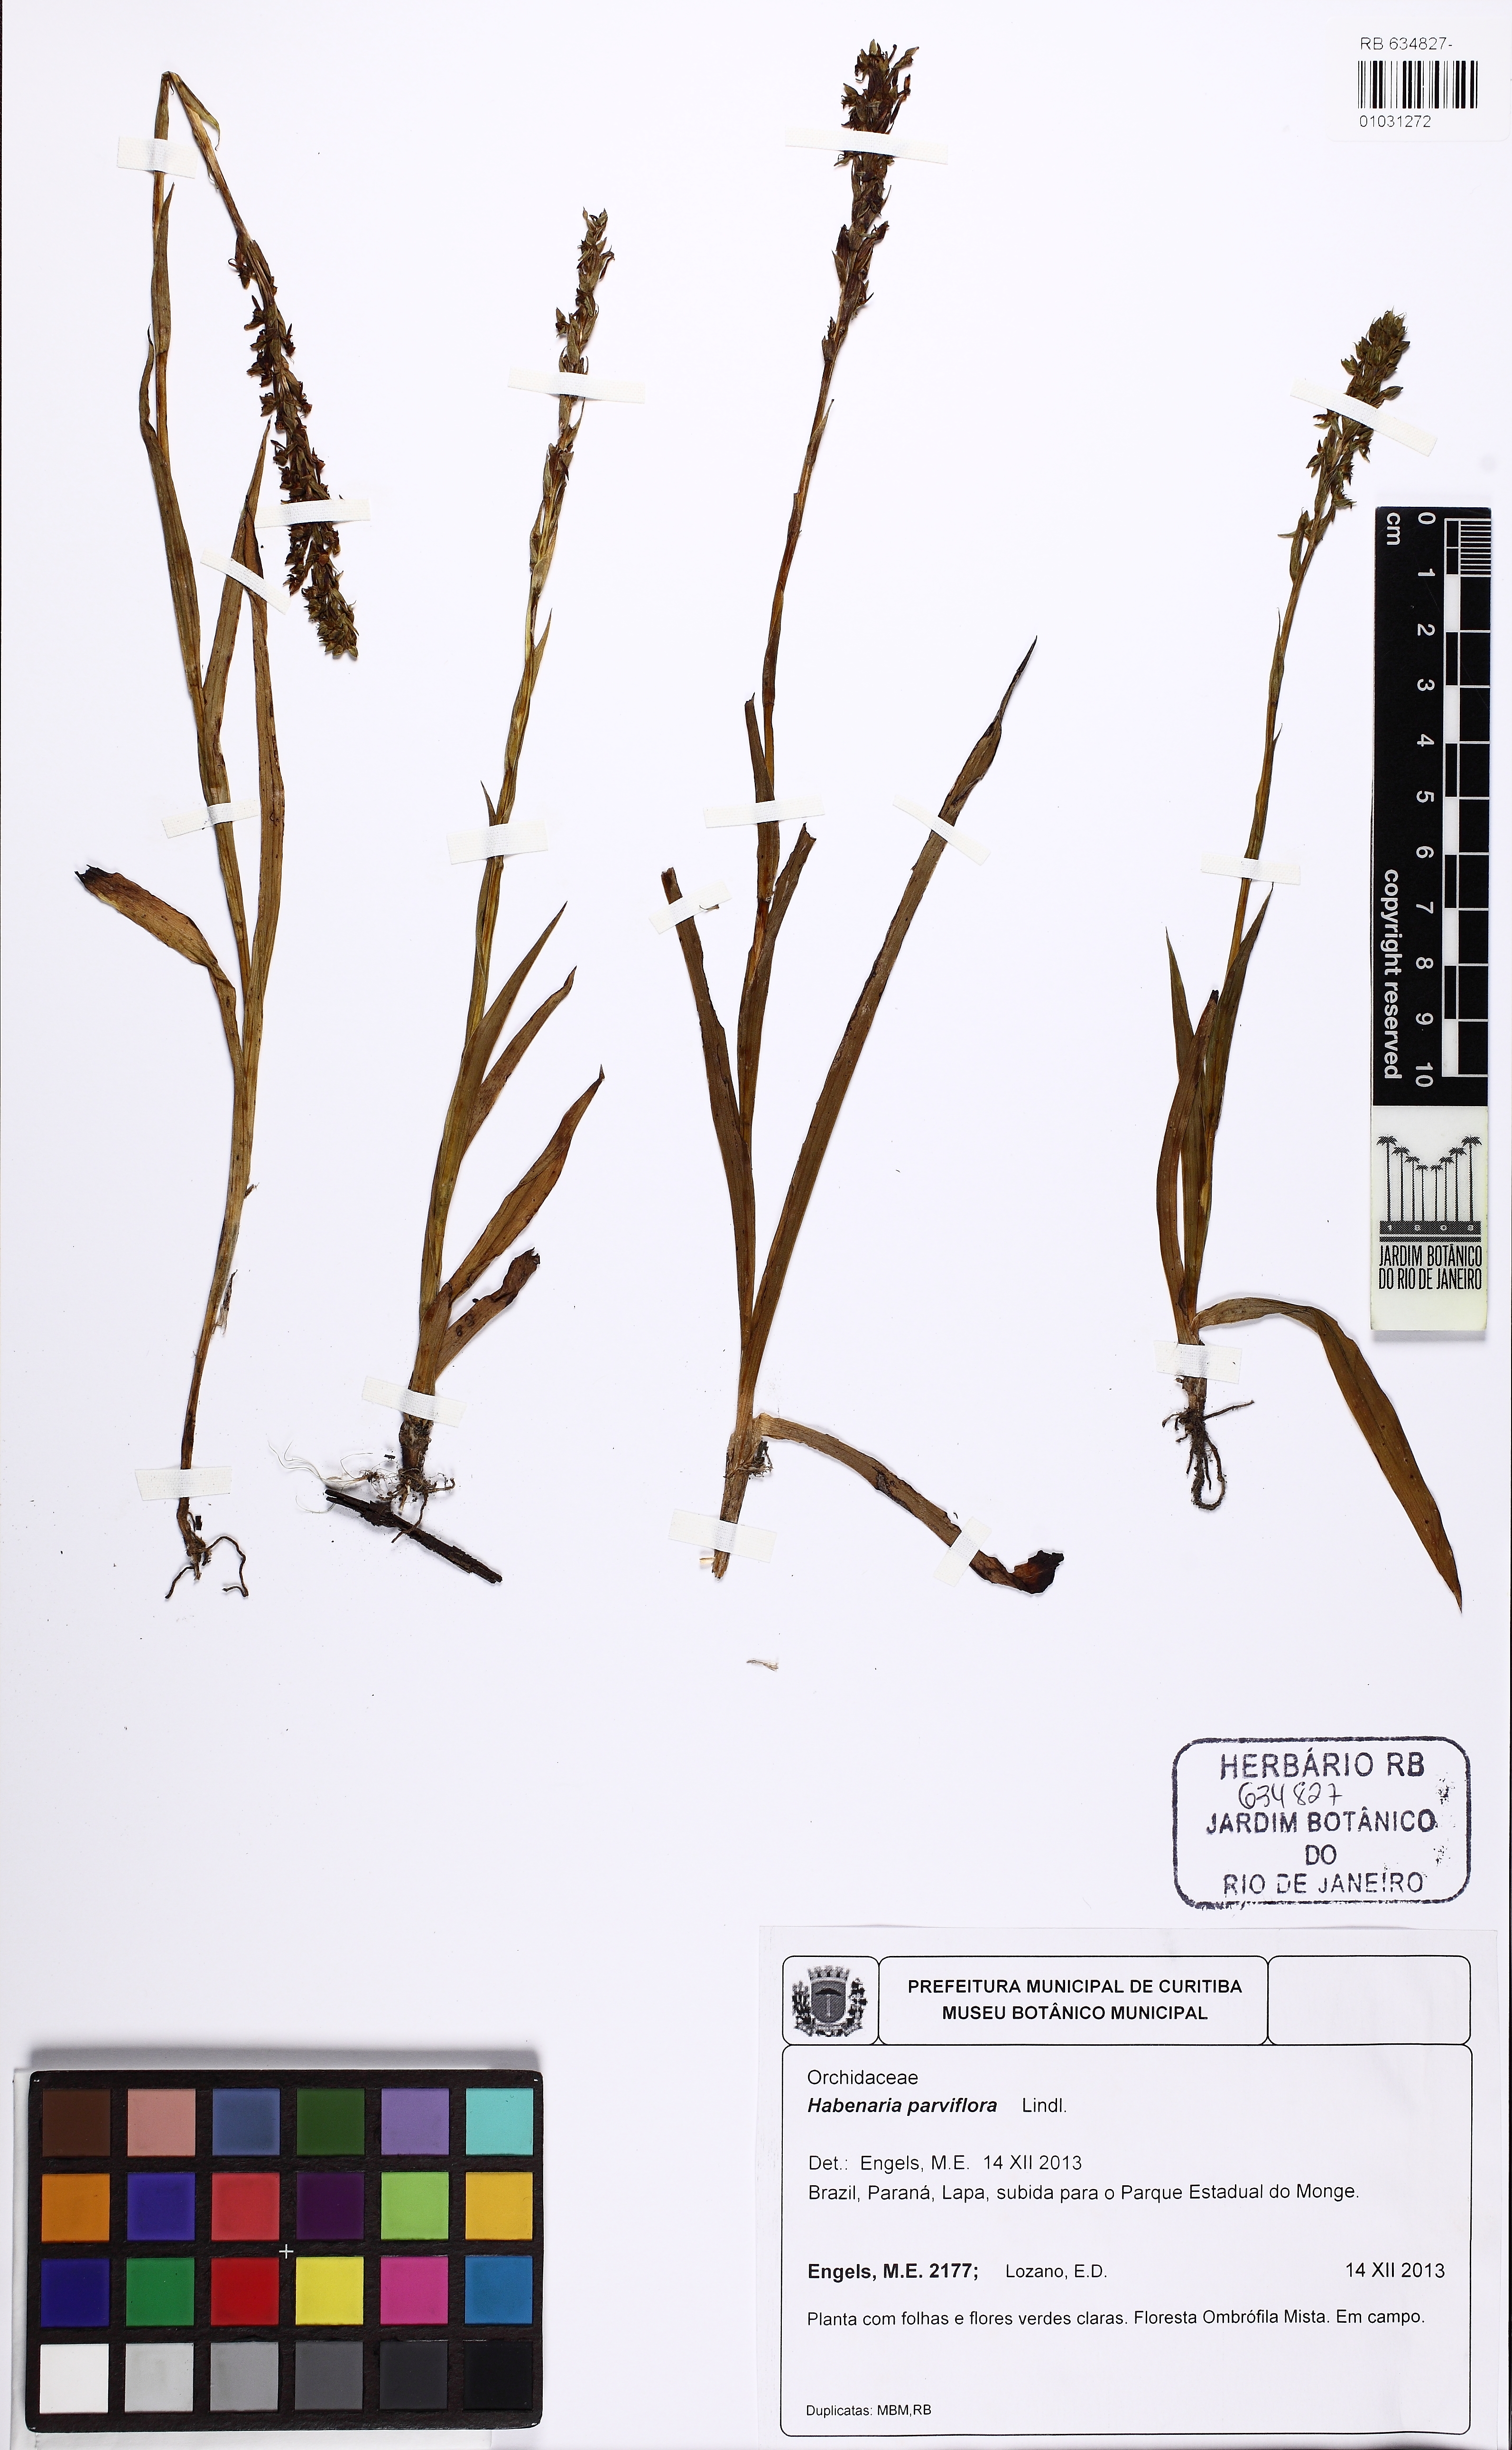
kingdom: Plantae
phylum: Tracheophyta
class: Liliopsida
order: Asparagales
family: Orchidaceae
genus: Habenaria
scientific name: Habenaria parviflora
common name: Small flowered habenaria
